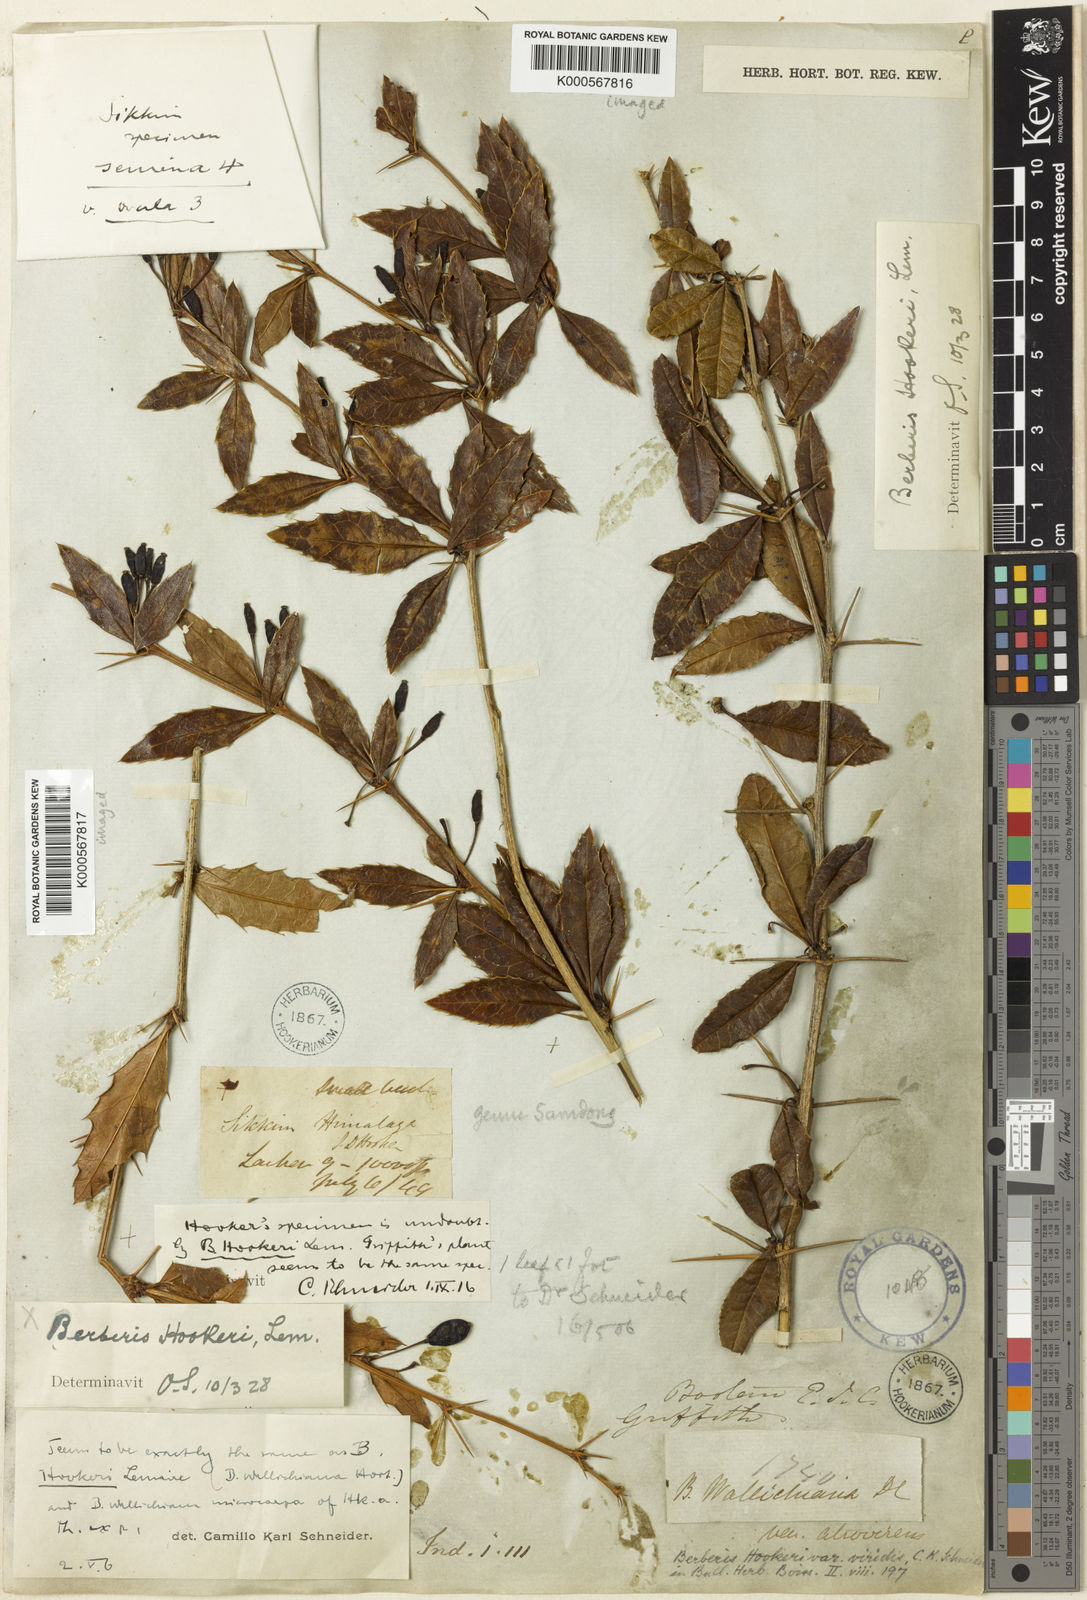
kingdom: Plantae
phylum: Tracheophyta
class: Magnoliopsida
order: Ranunculales
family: Berberidaceae
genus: Berberis
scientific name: Berberis hookeri
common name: Hooker's barberry
